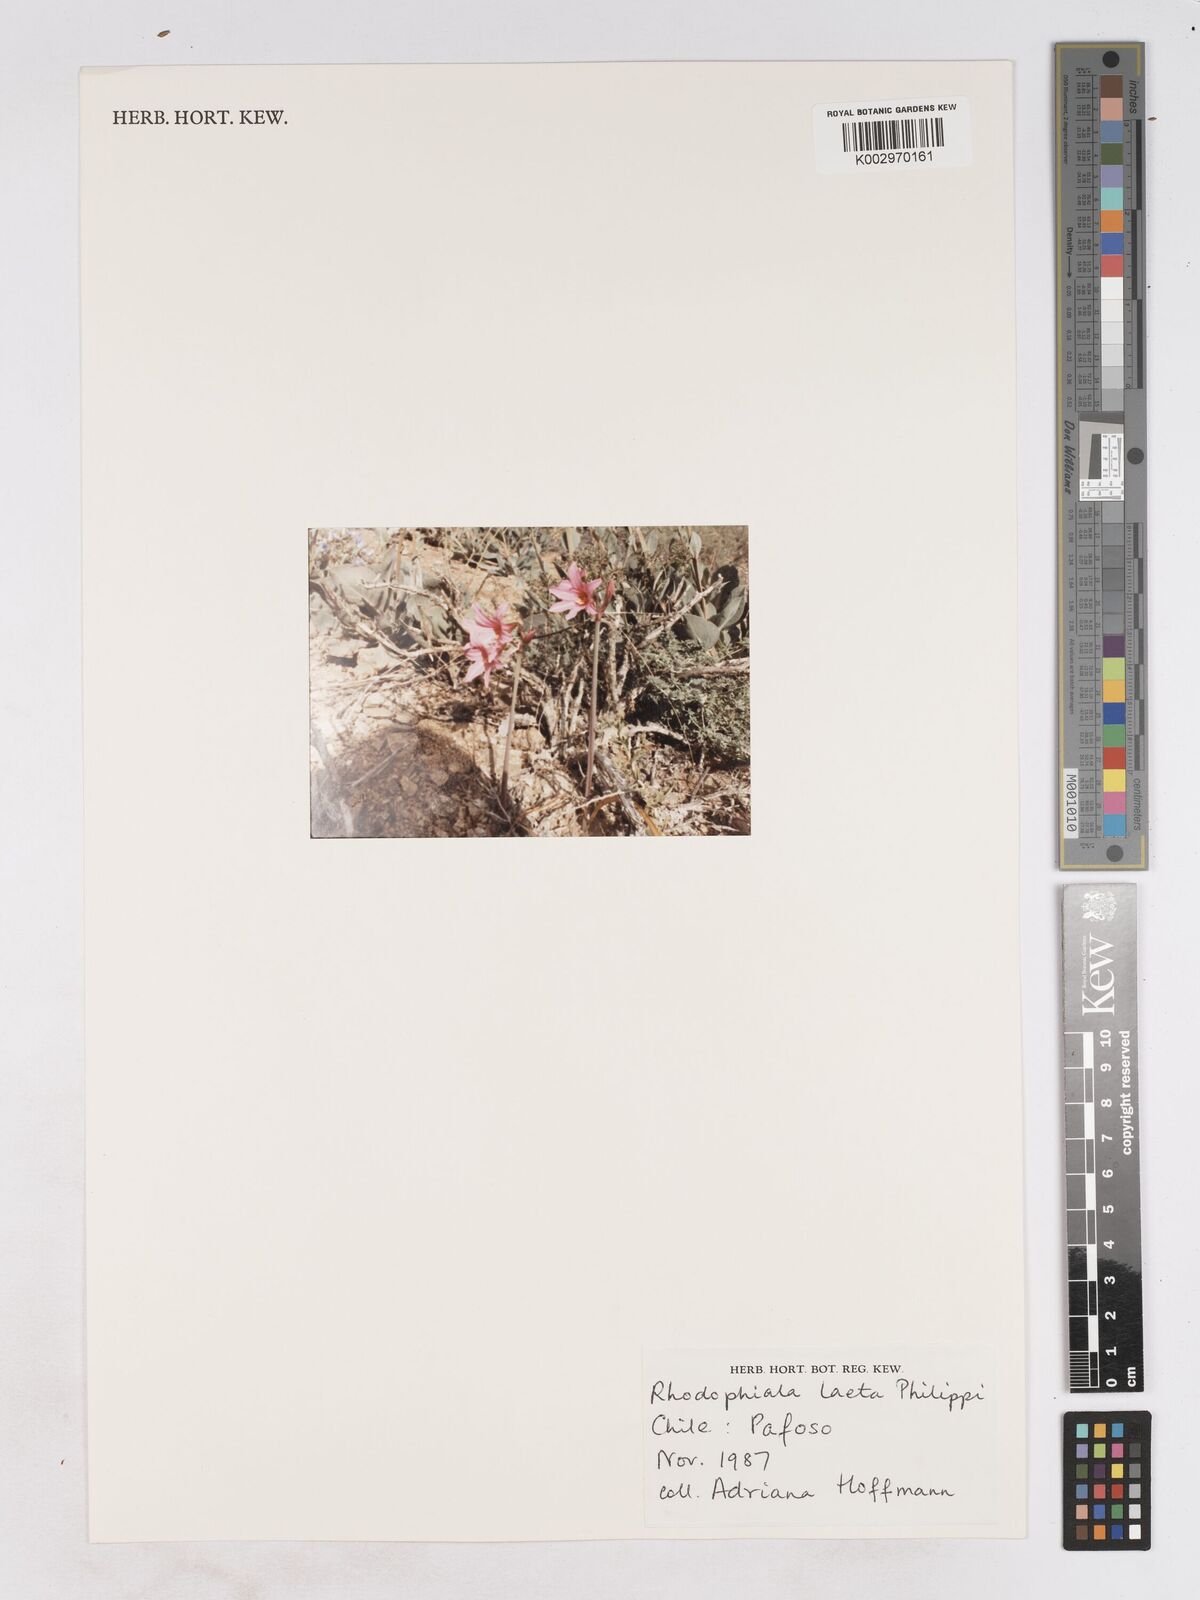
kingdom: Plantae
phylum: Tracheophyta
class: Liliopsida
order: Asparagales
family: Amaryllidaceae
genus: Zephyranthes
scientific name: Zephyranthes laeta
